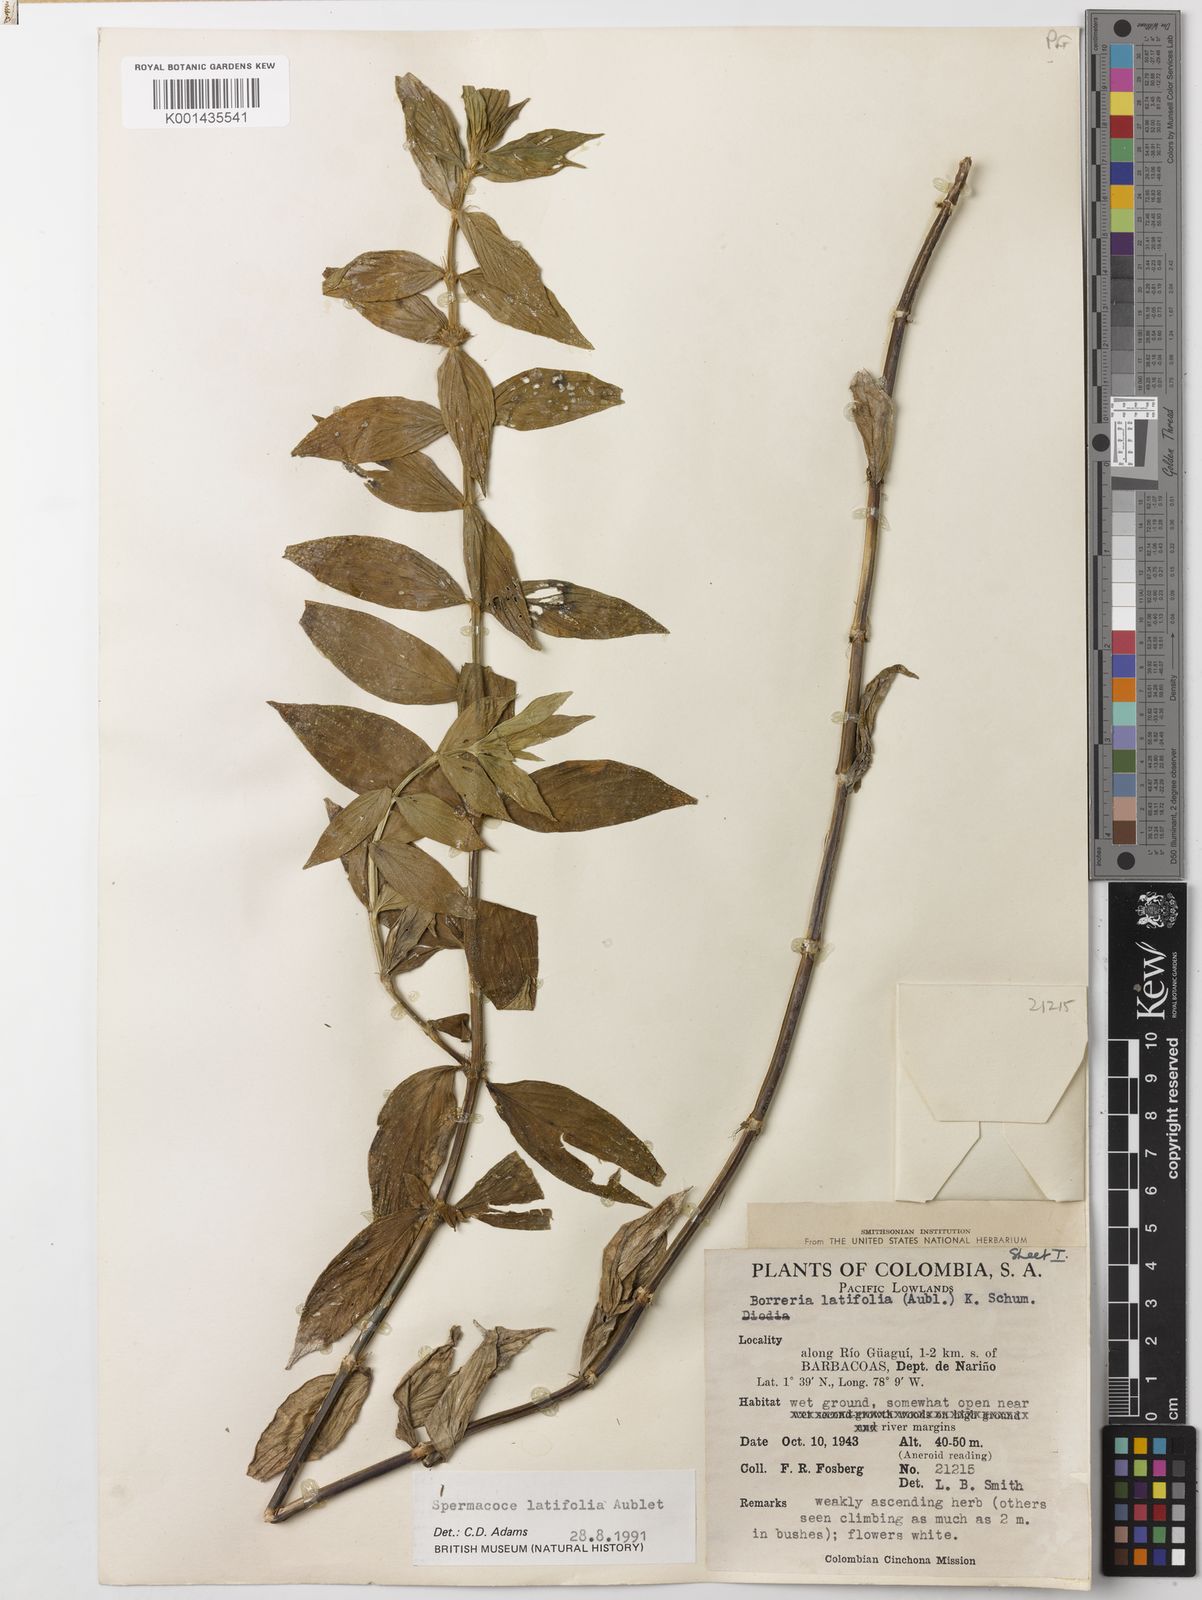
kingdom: Plantae
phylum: Tracheophyta
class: Magnoliopsida
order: Gentianales
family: Rubiaceae
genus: Spermacoce
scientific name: Spermacoce latifolia
